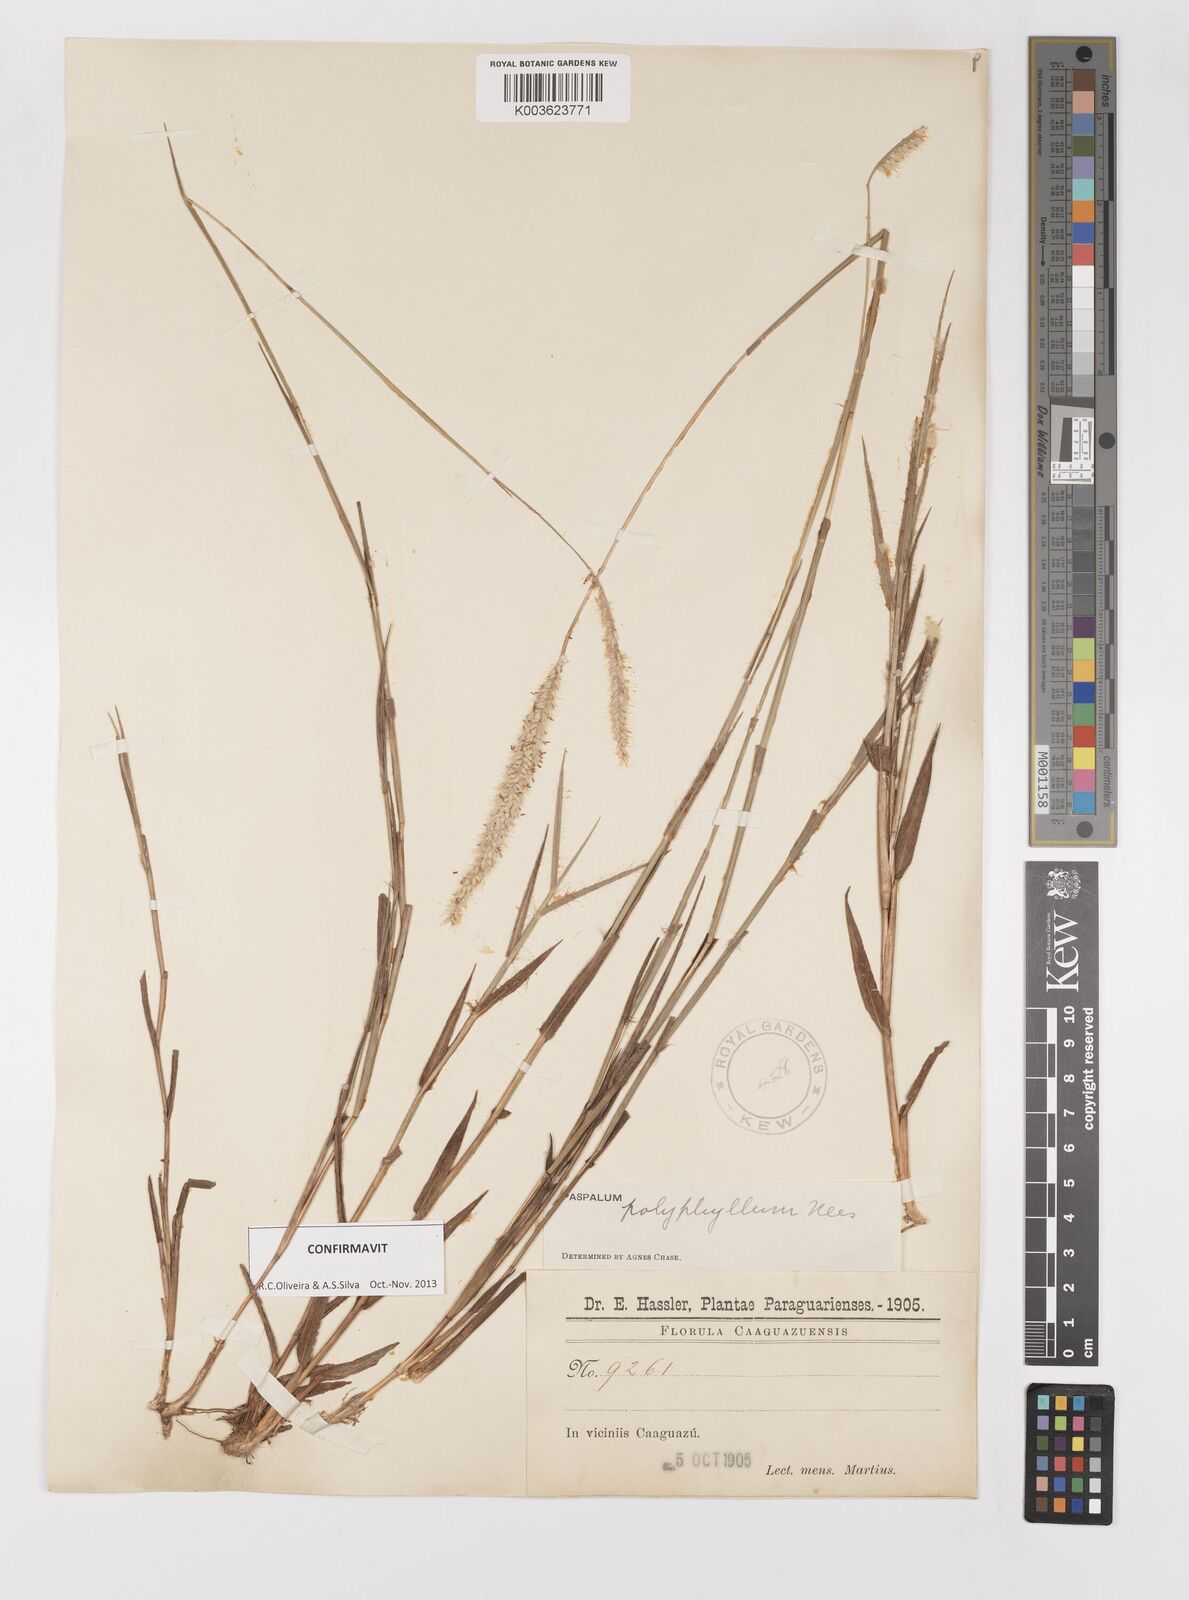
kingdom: Plantae
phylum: Tracheophyta
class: Liliopsida
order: Poales
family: Poaceae
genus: Paspalum
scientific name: Paspalum polyphyllum
